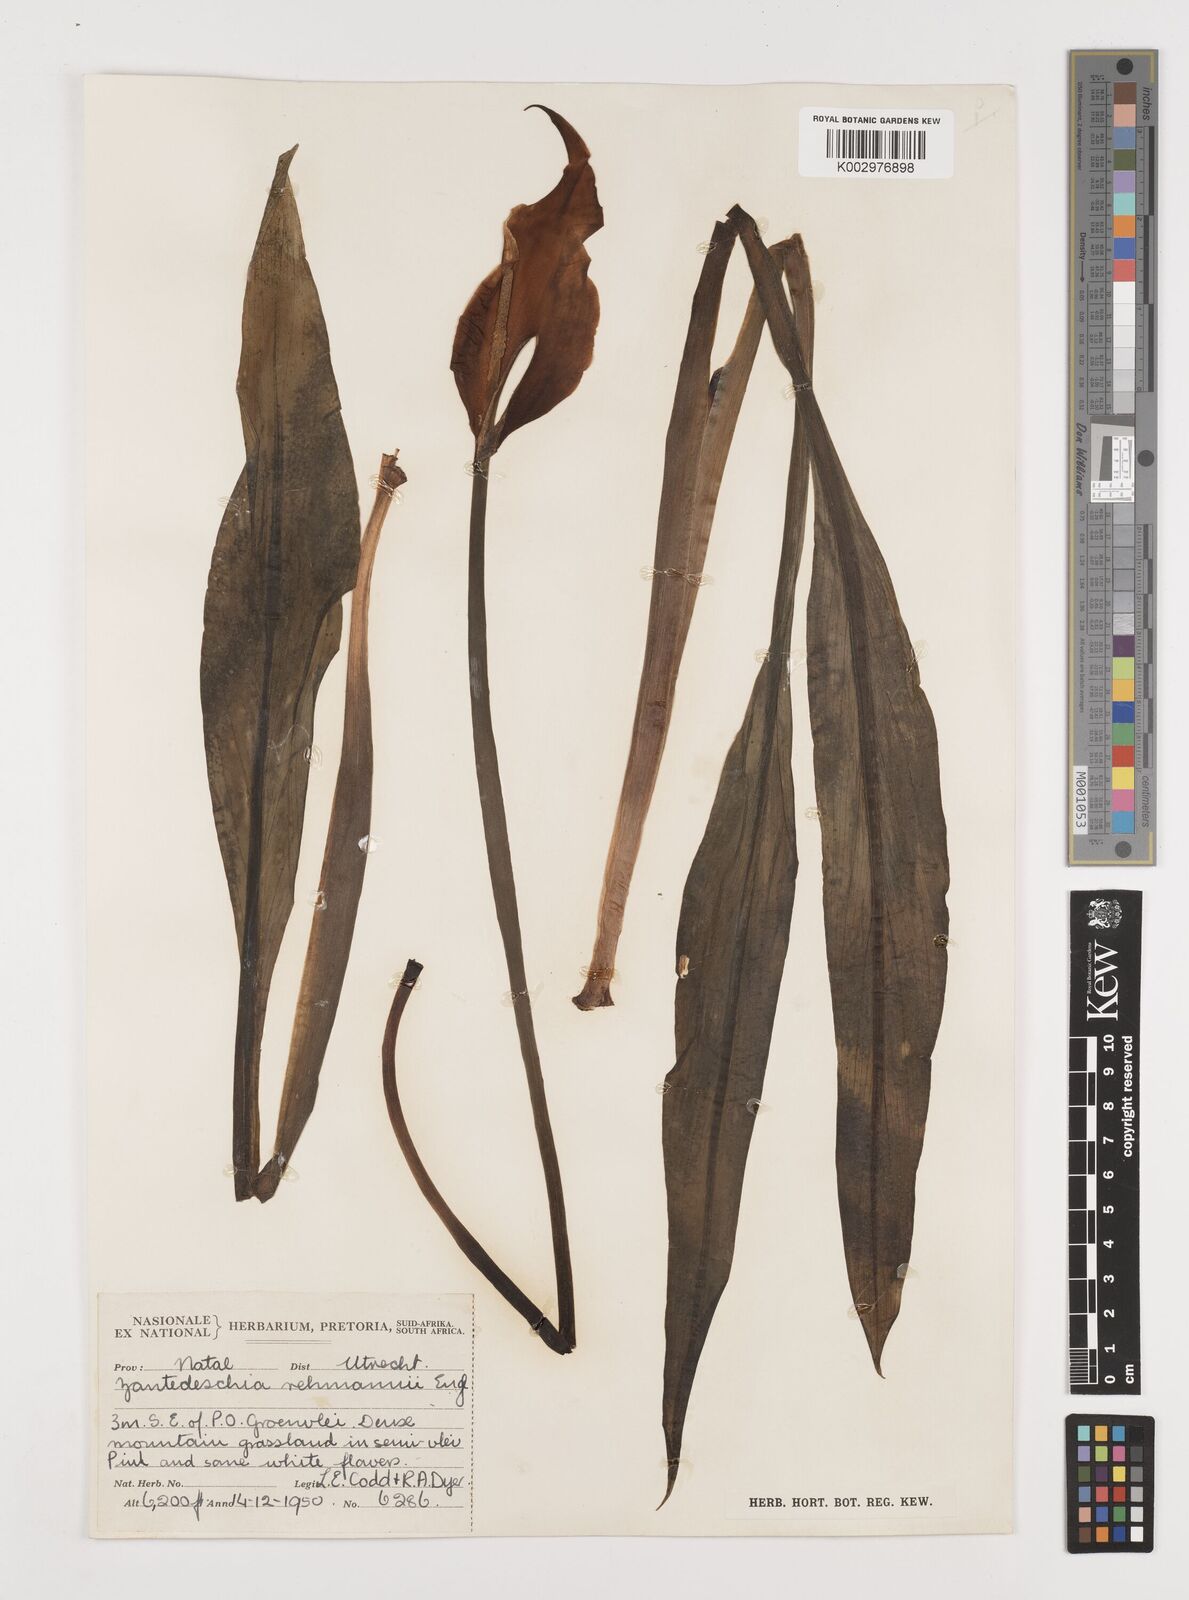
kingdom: Plantae
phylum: Tracheophyta
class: Liliopsida
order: Alismatales
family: Araceae
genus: Zantedeschia
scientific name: Zantedeschia rehmannii
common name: Red calla
